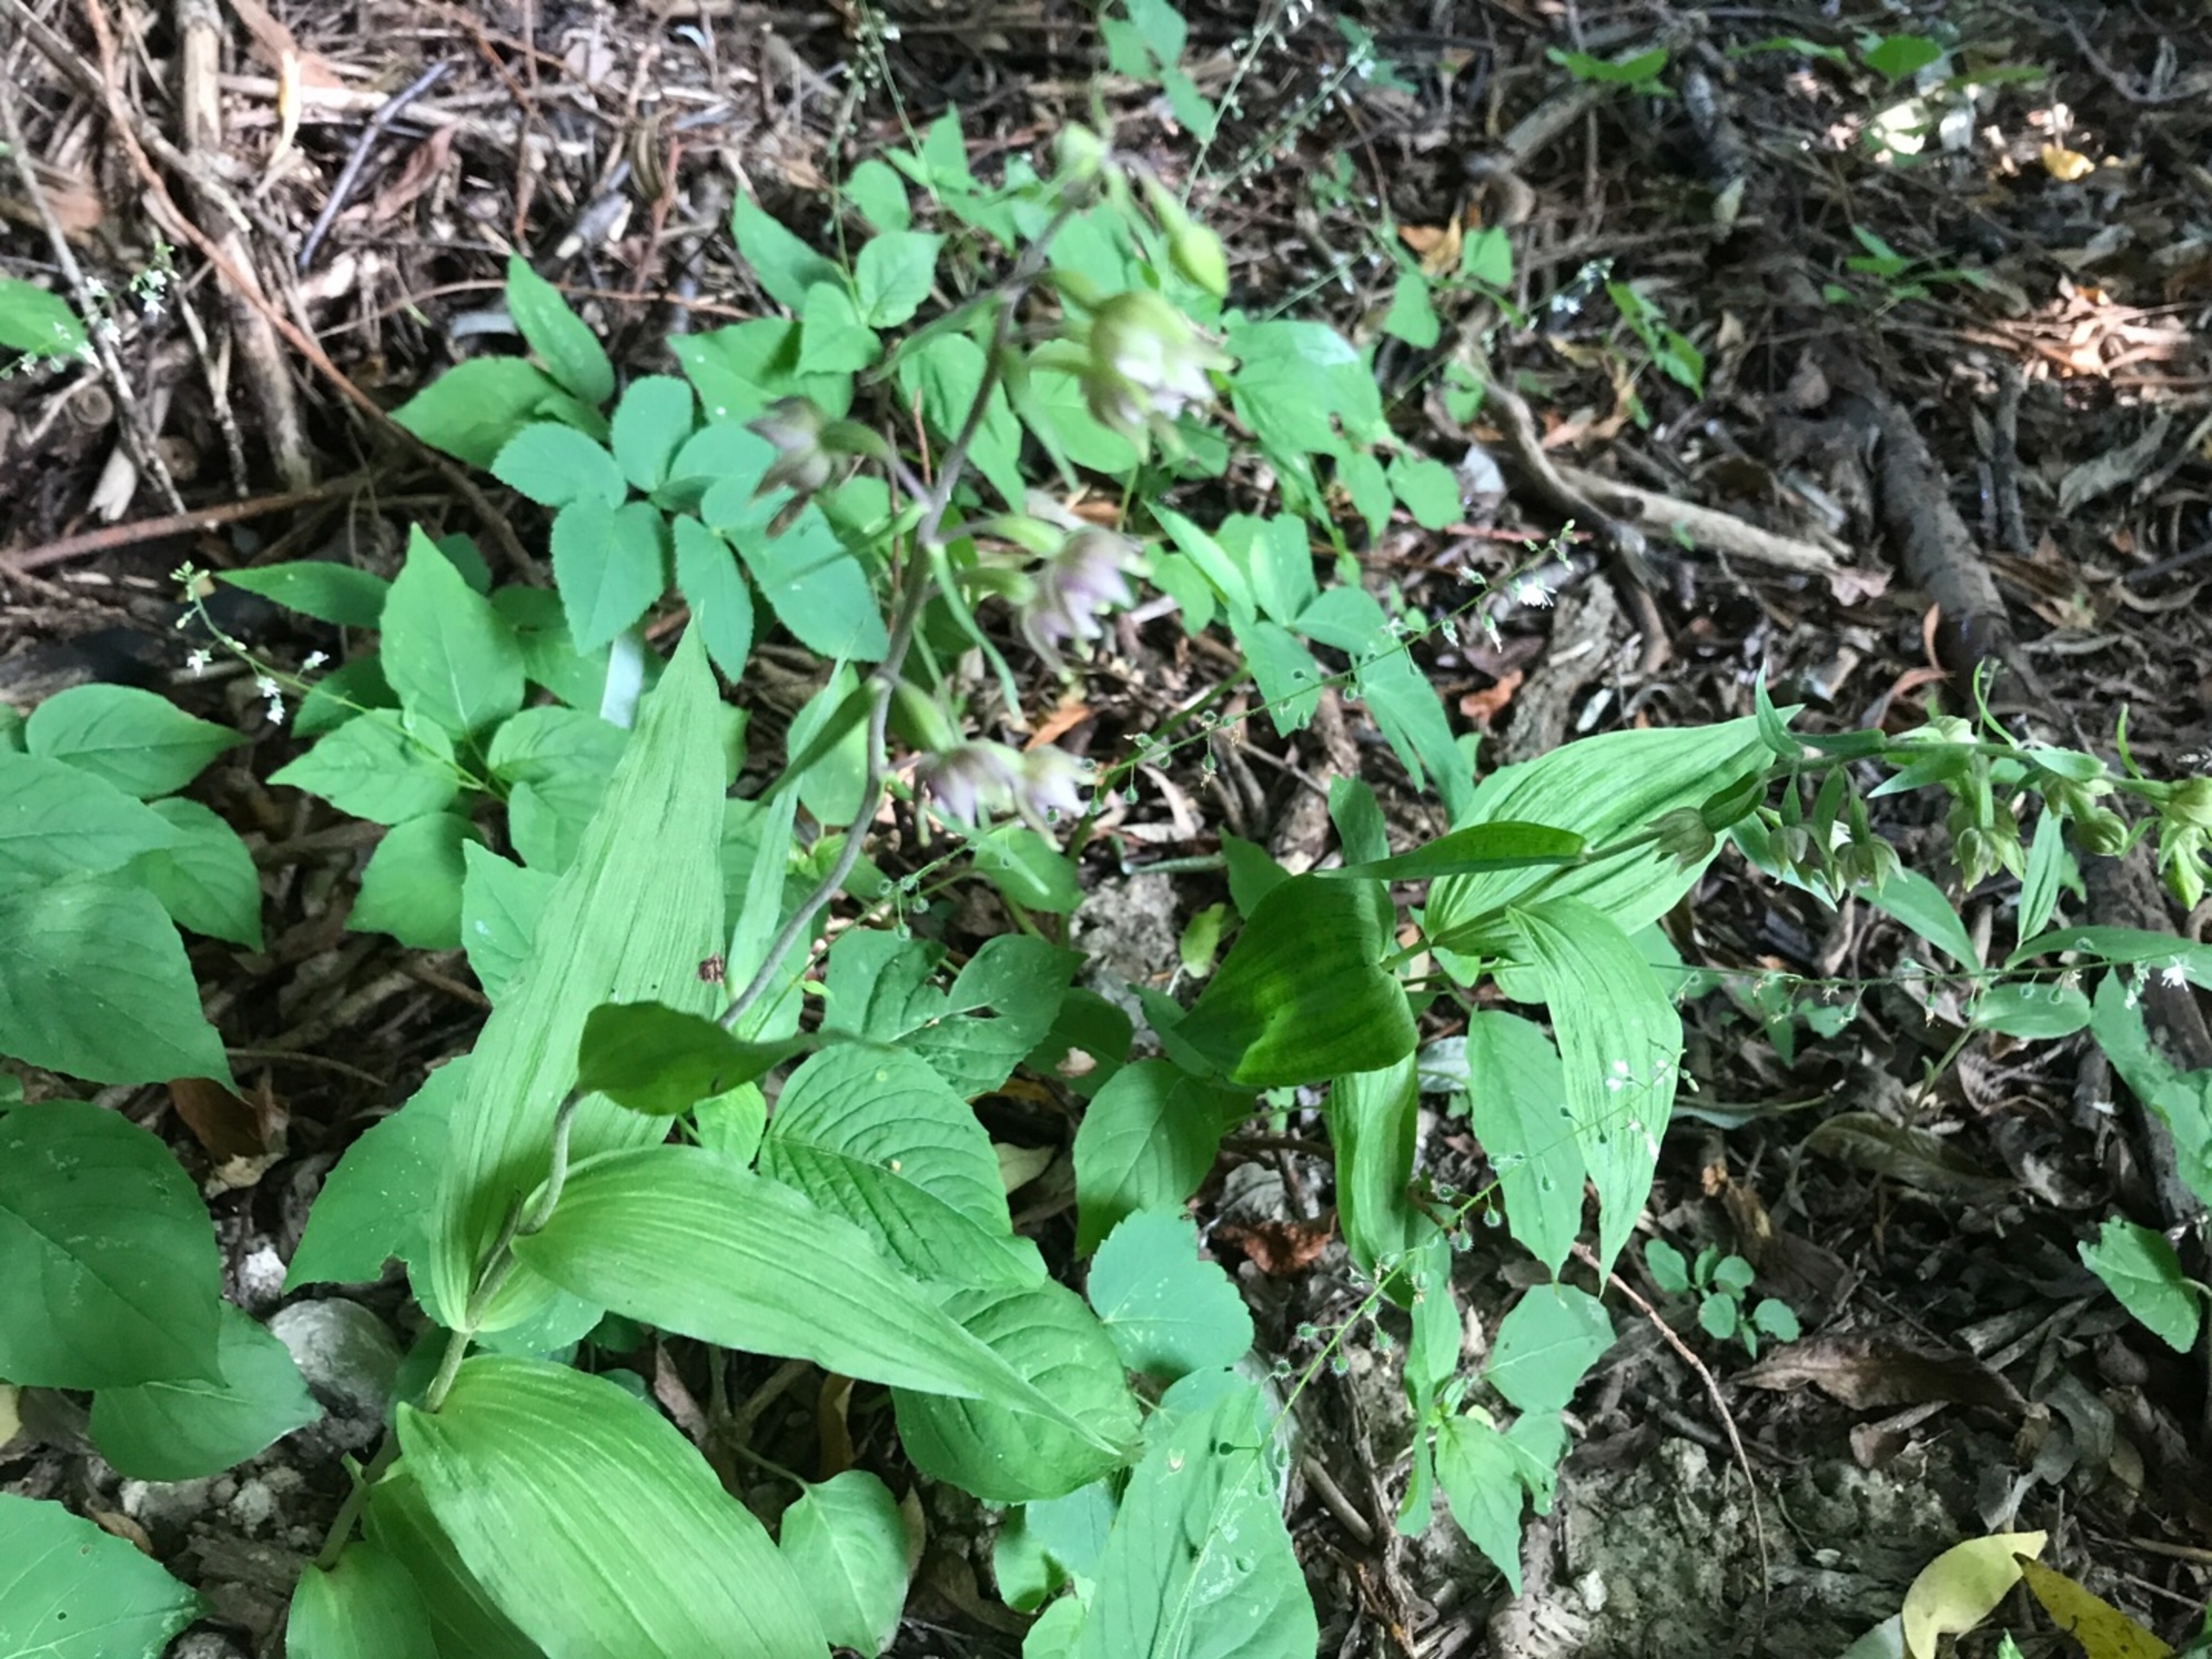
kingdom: Plantae
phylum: Tracheophyta
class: Liliopsida
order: Asparagales
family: Orchidaceae
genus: Epipactis
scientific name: Epipactis helleborine
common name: Skov-hullæbe
